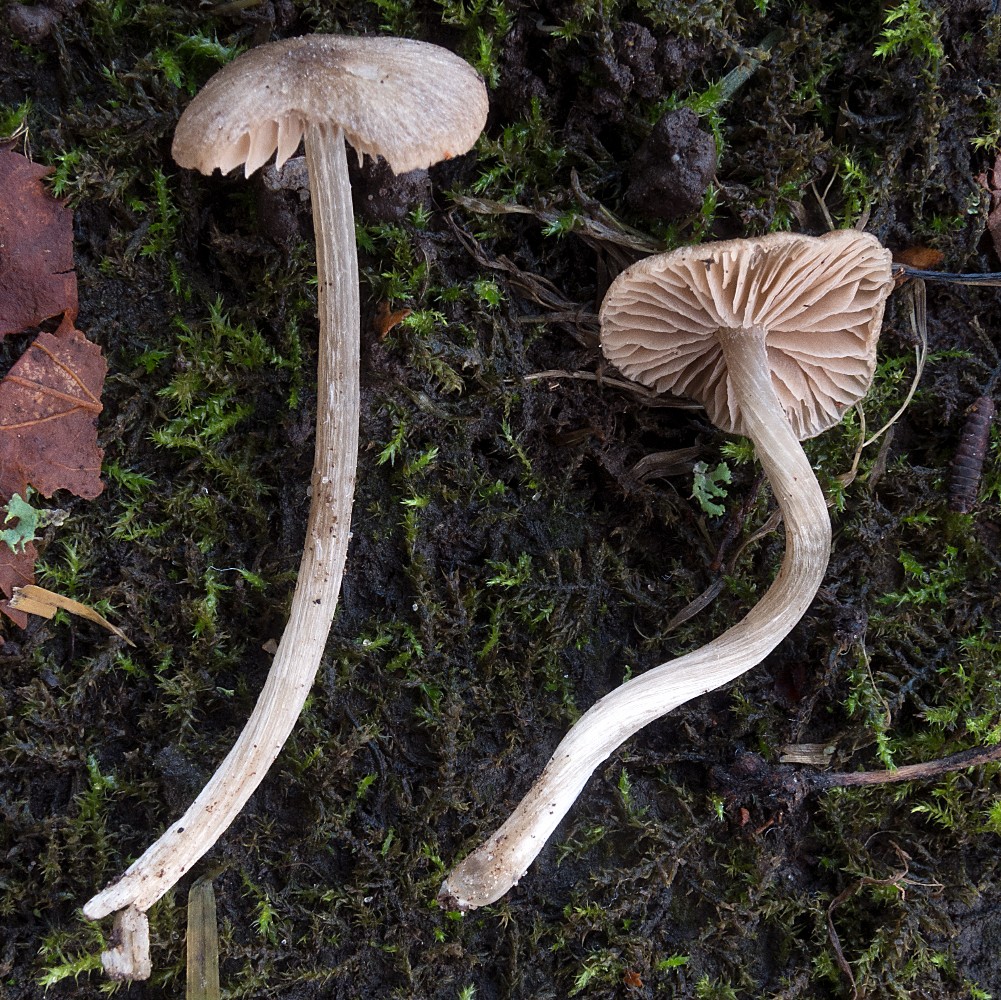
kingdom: Fungi
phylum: Basidiomycota
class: Agaricomycetes
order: Agaricales
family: Entolomataceae
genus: Entoloma
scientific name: Entoloma cuniculorum
